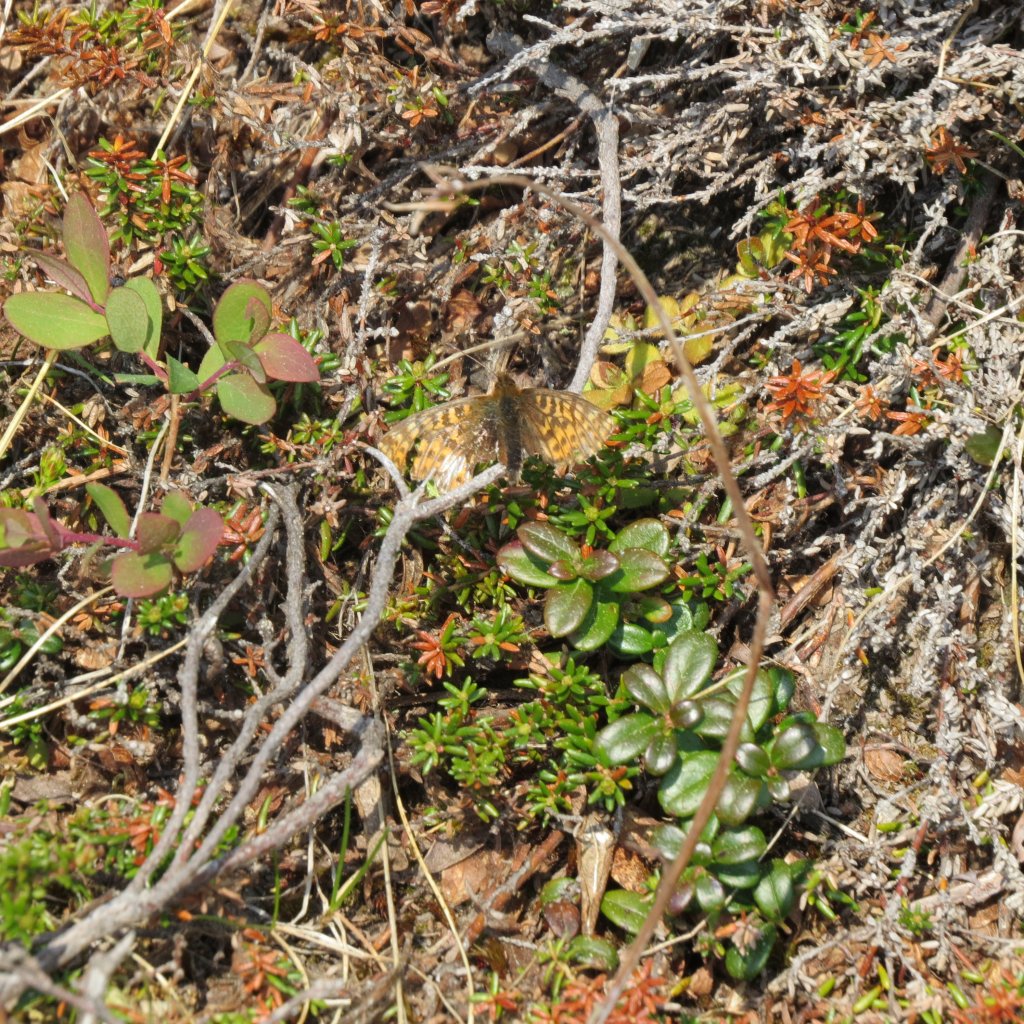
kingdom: Animalia
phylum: Arthropoda
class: Insecta
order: Lepidoptera
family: Nymphalidae
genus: Boloria
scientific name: Boloria alaskensis
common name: Alaskan Fritillary
